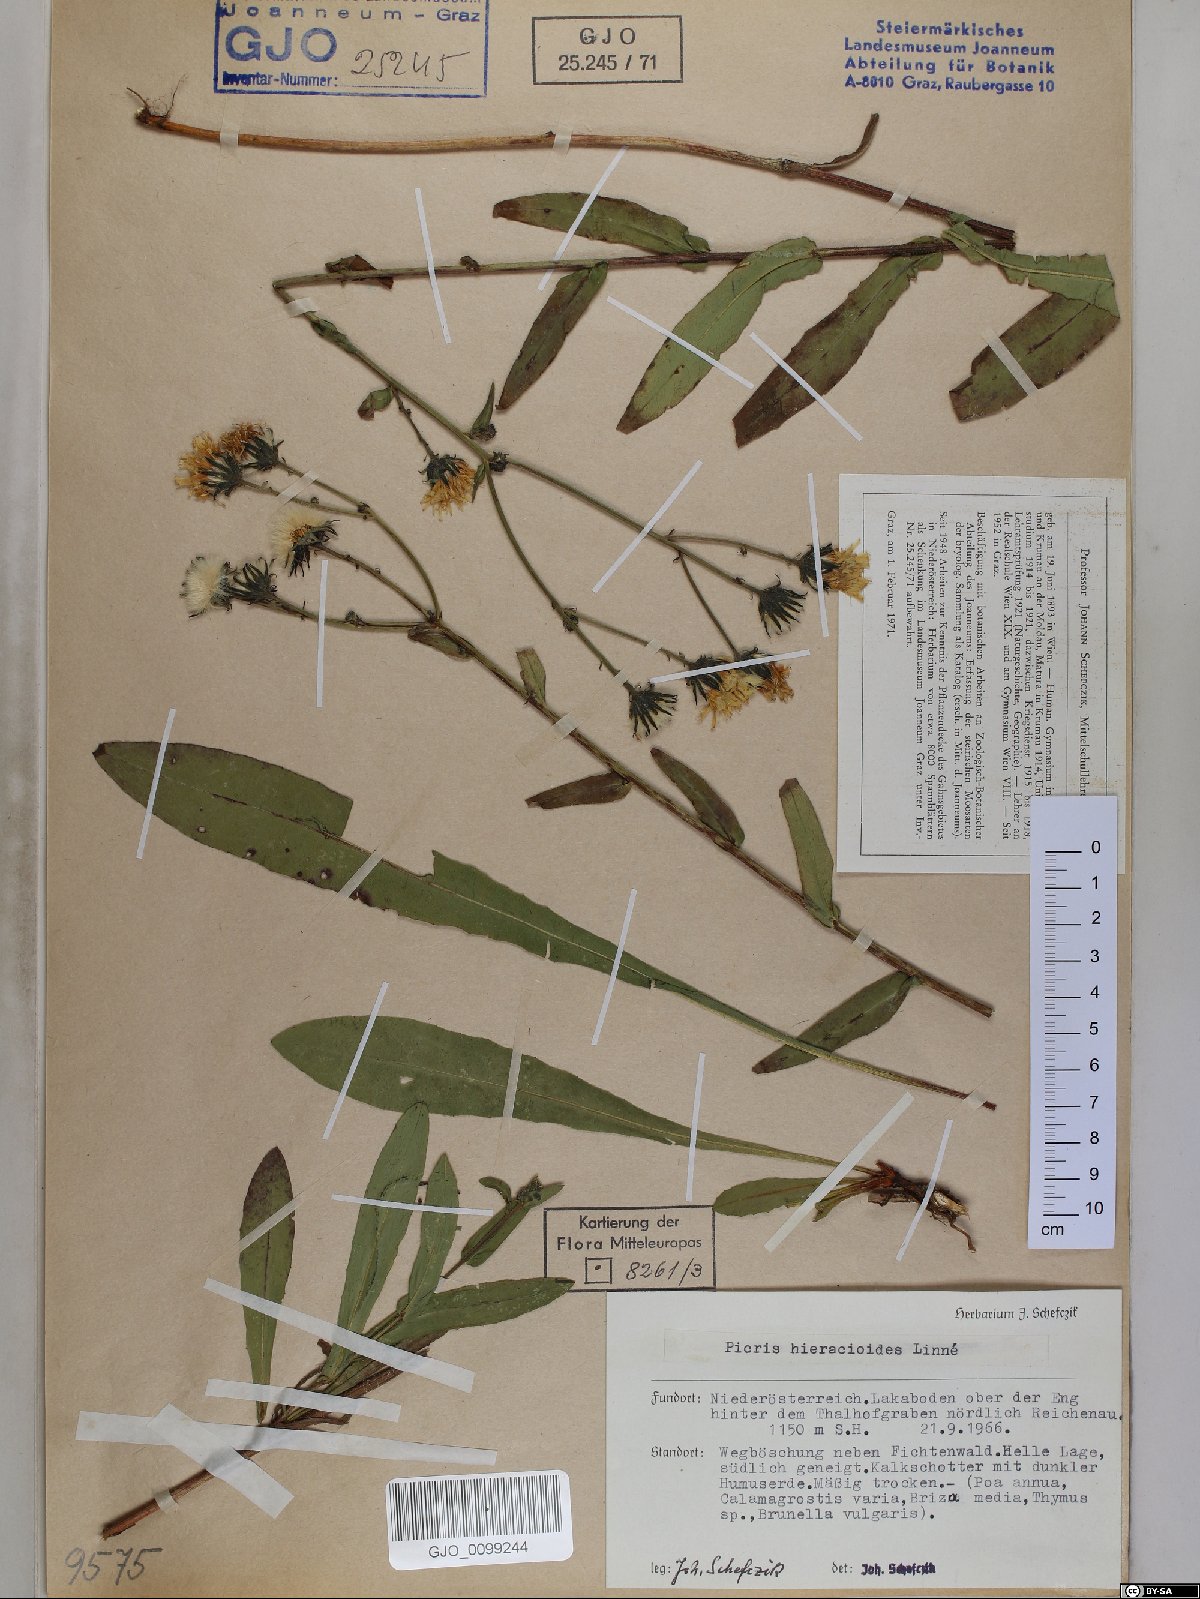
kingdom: Plantae
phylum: Tracheophyta
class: Magnoliopsida
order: Asterales
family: Asteraceae
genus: Picris
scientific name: Picris hieracioides
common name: Hawkweed oxtongue
